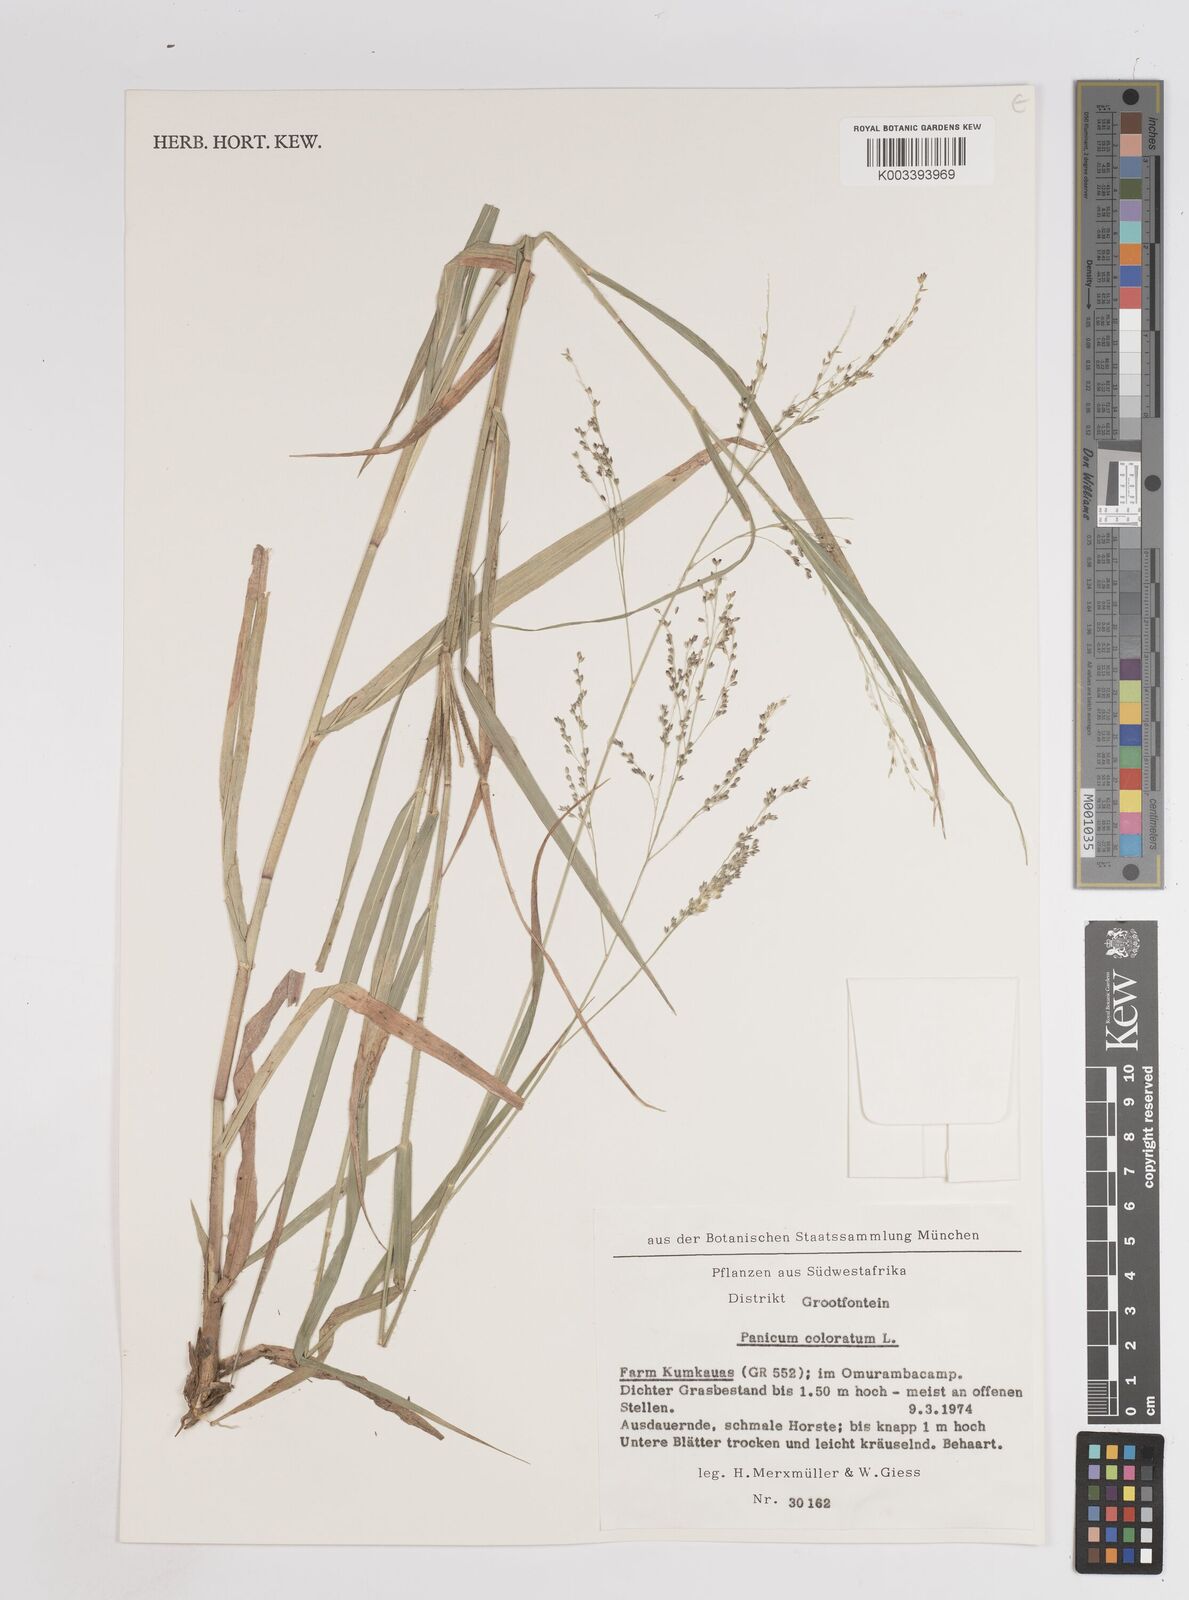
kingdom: Plantae
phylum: Tracheophyta
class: Liliopsida
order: Poales
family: Poaceae
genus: Panicum
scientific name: Panicum coloratum
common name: Kleingrass
